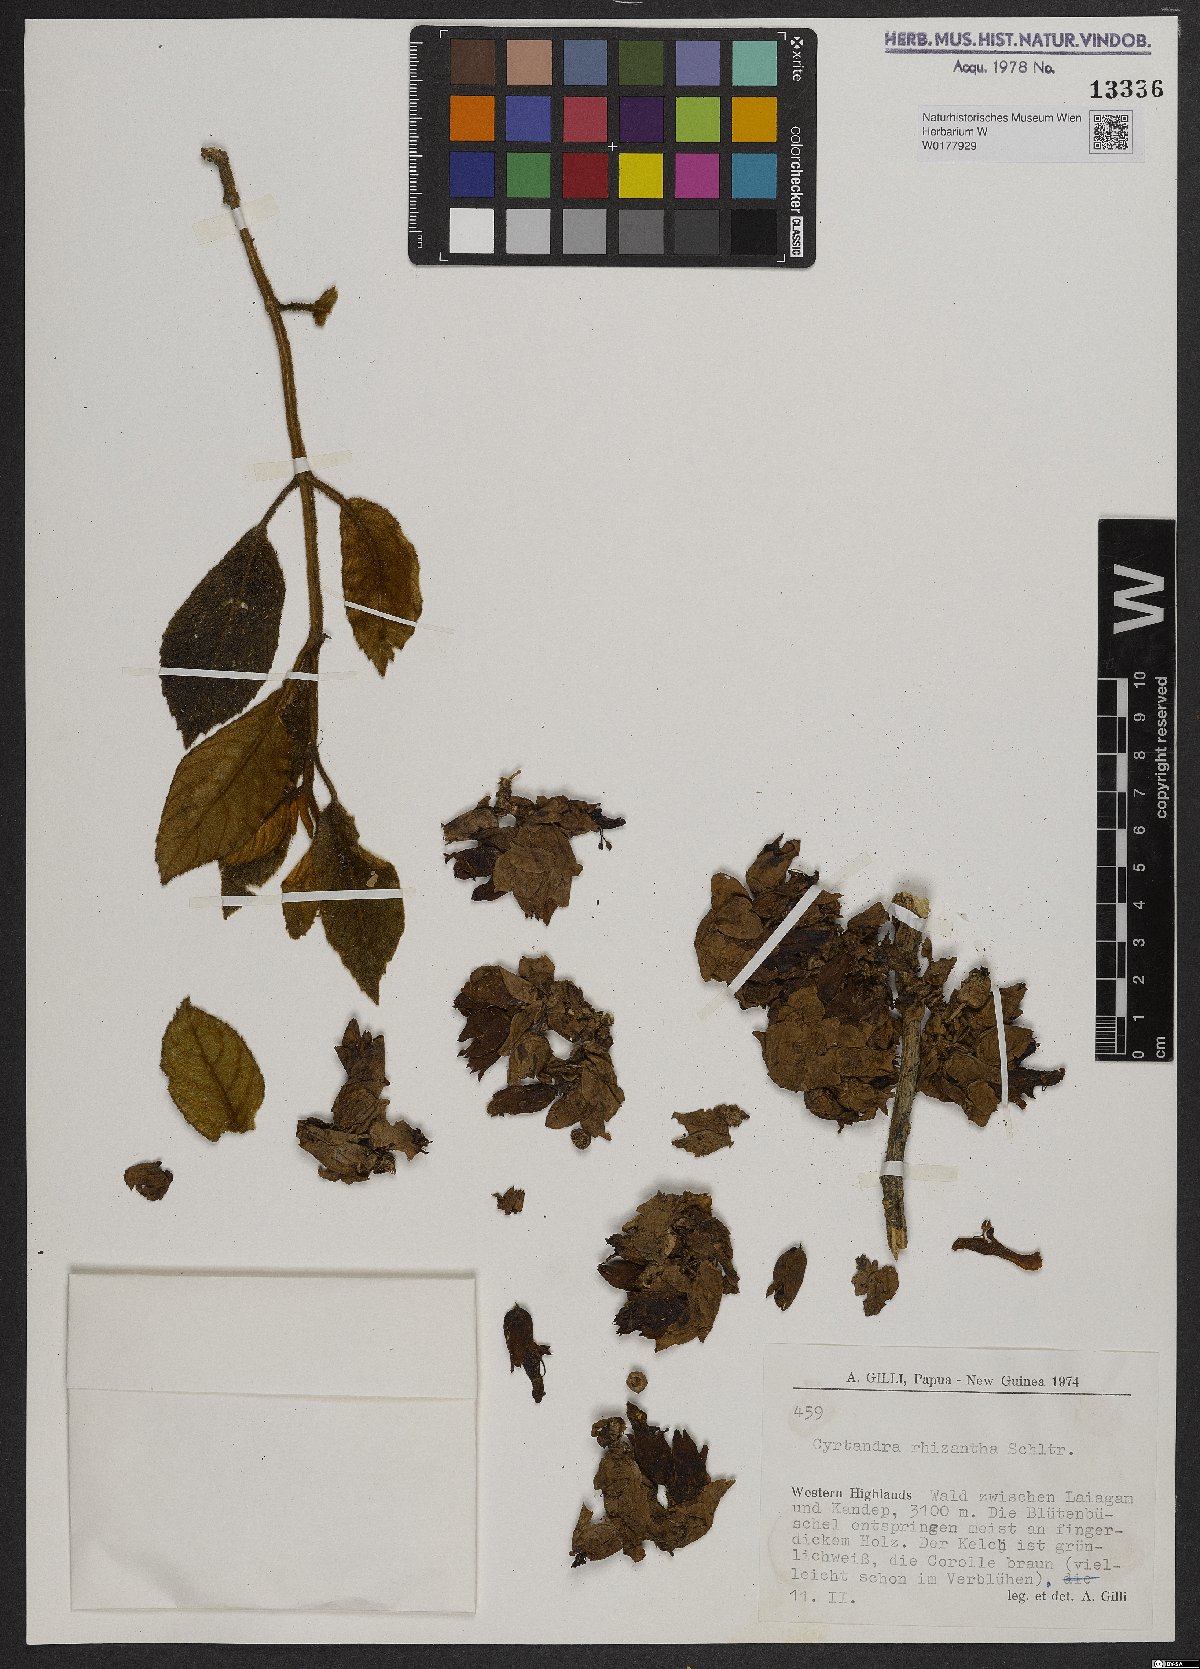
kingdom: Plantae
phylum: Tracheophyta
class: Magnoliopsida
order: Lamiales
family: Gesneriaceae
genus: Cyrtandra
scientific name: Cyrtandra
